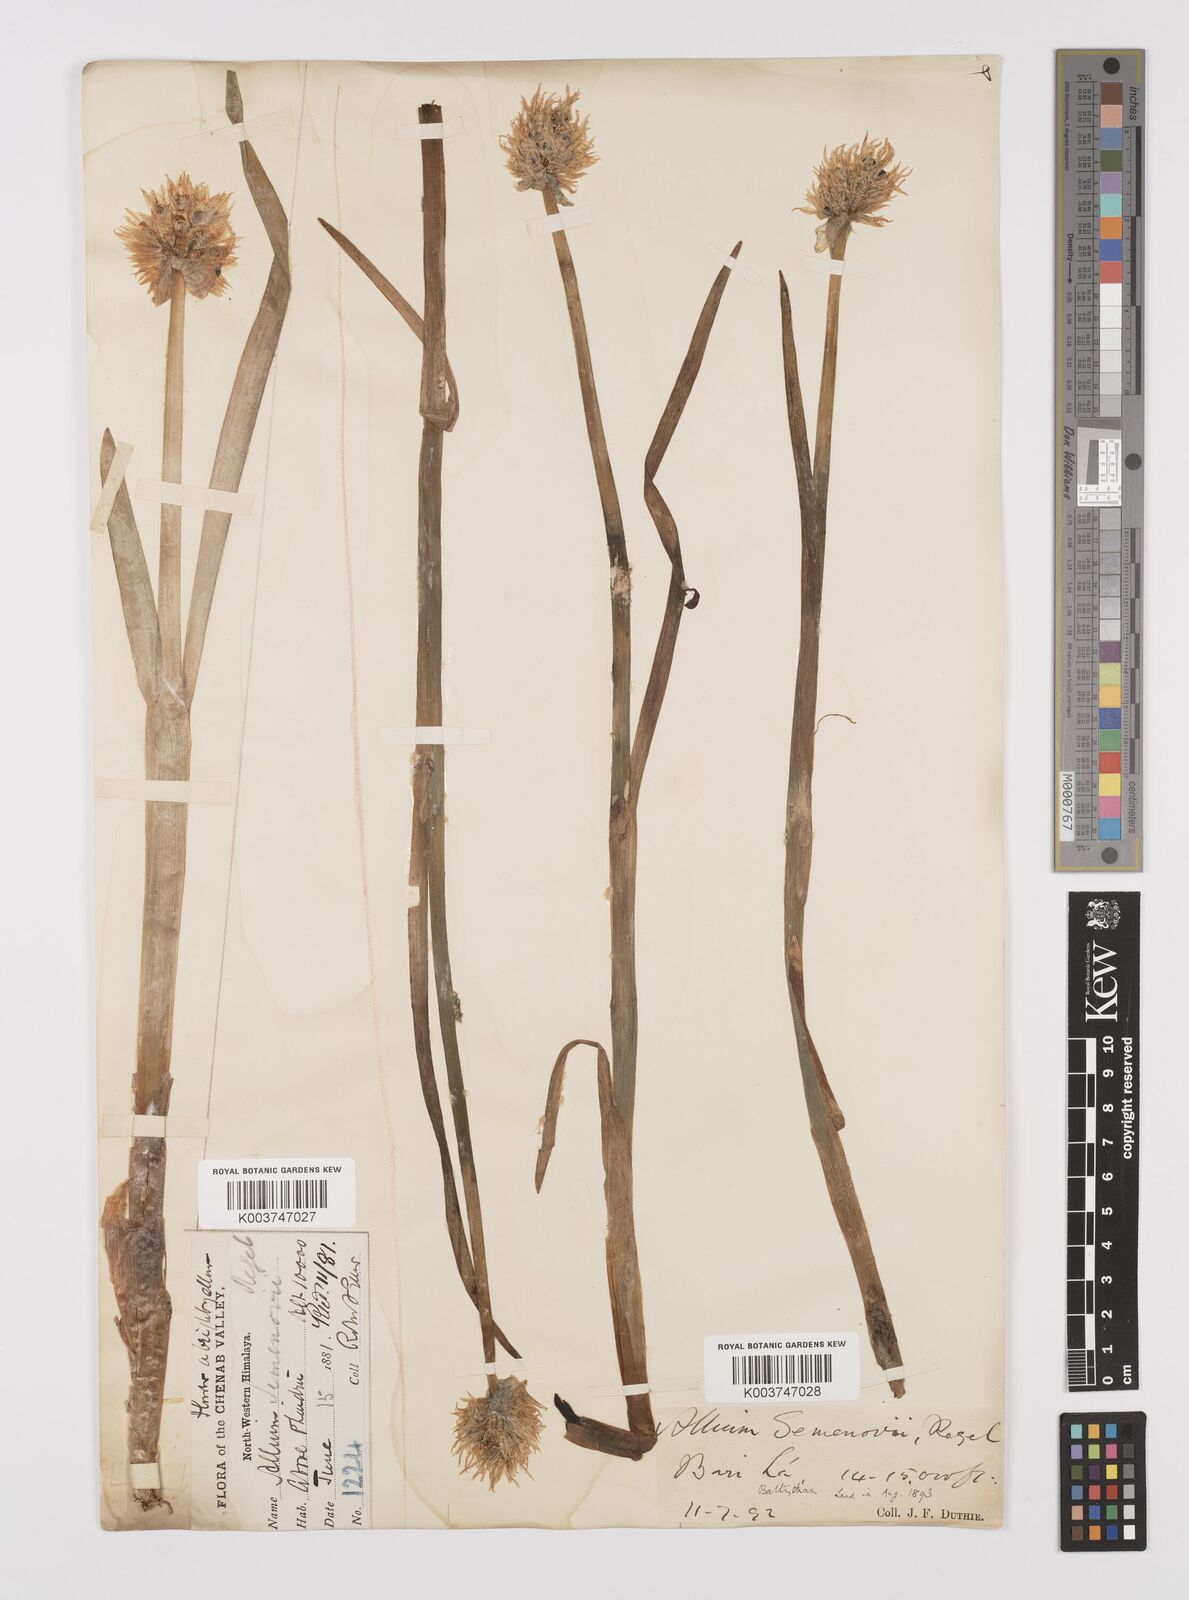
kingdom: Plantae
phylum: Tracheophyta
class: Liliopsida
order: Asparagales
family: Amaryllidaceae
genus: Allium
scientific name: Allium semenovii
